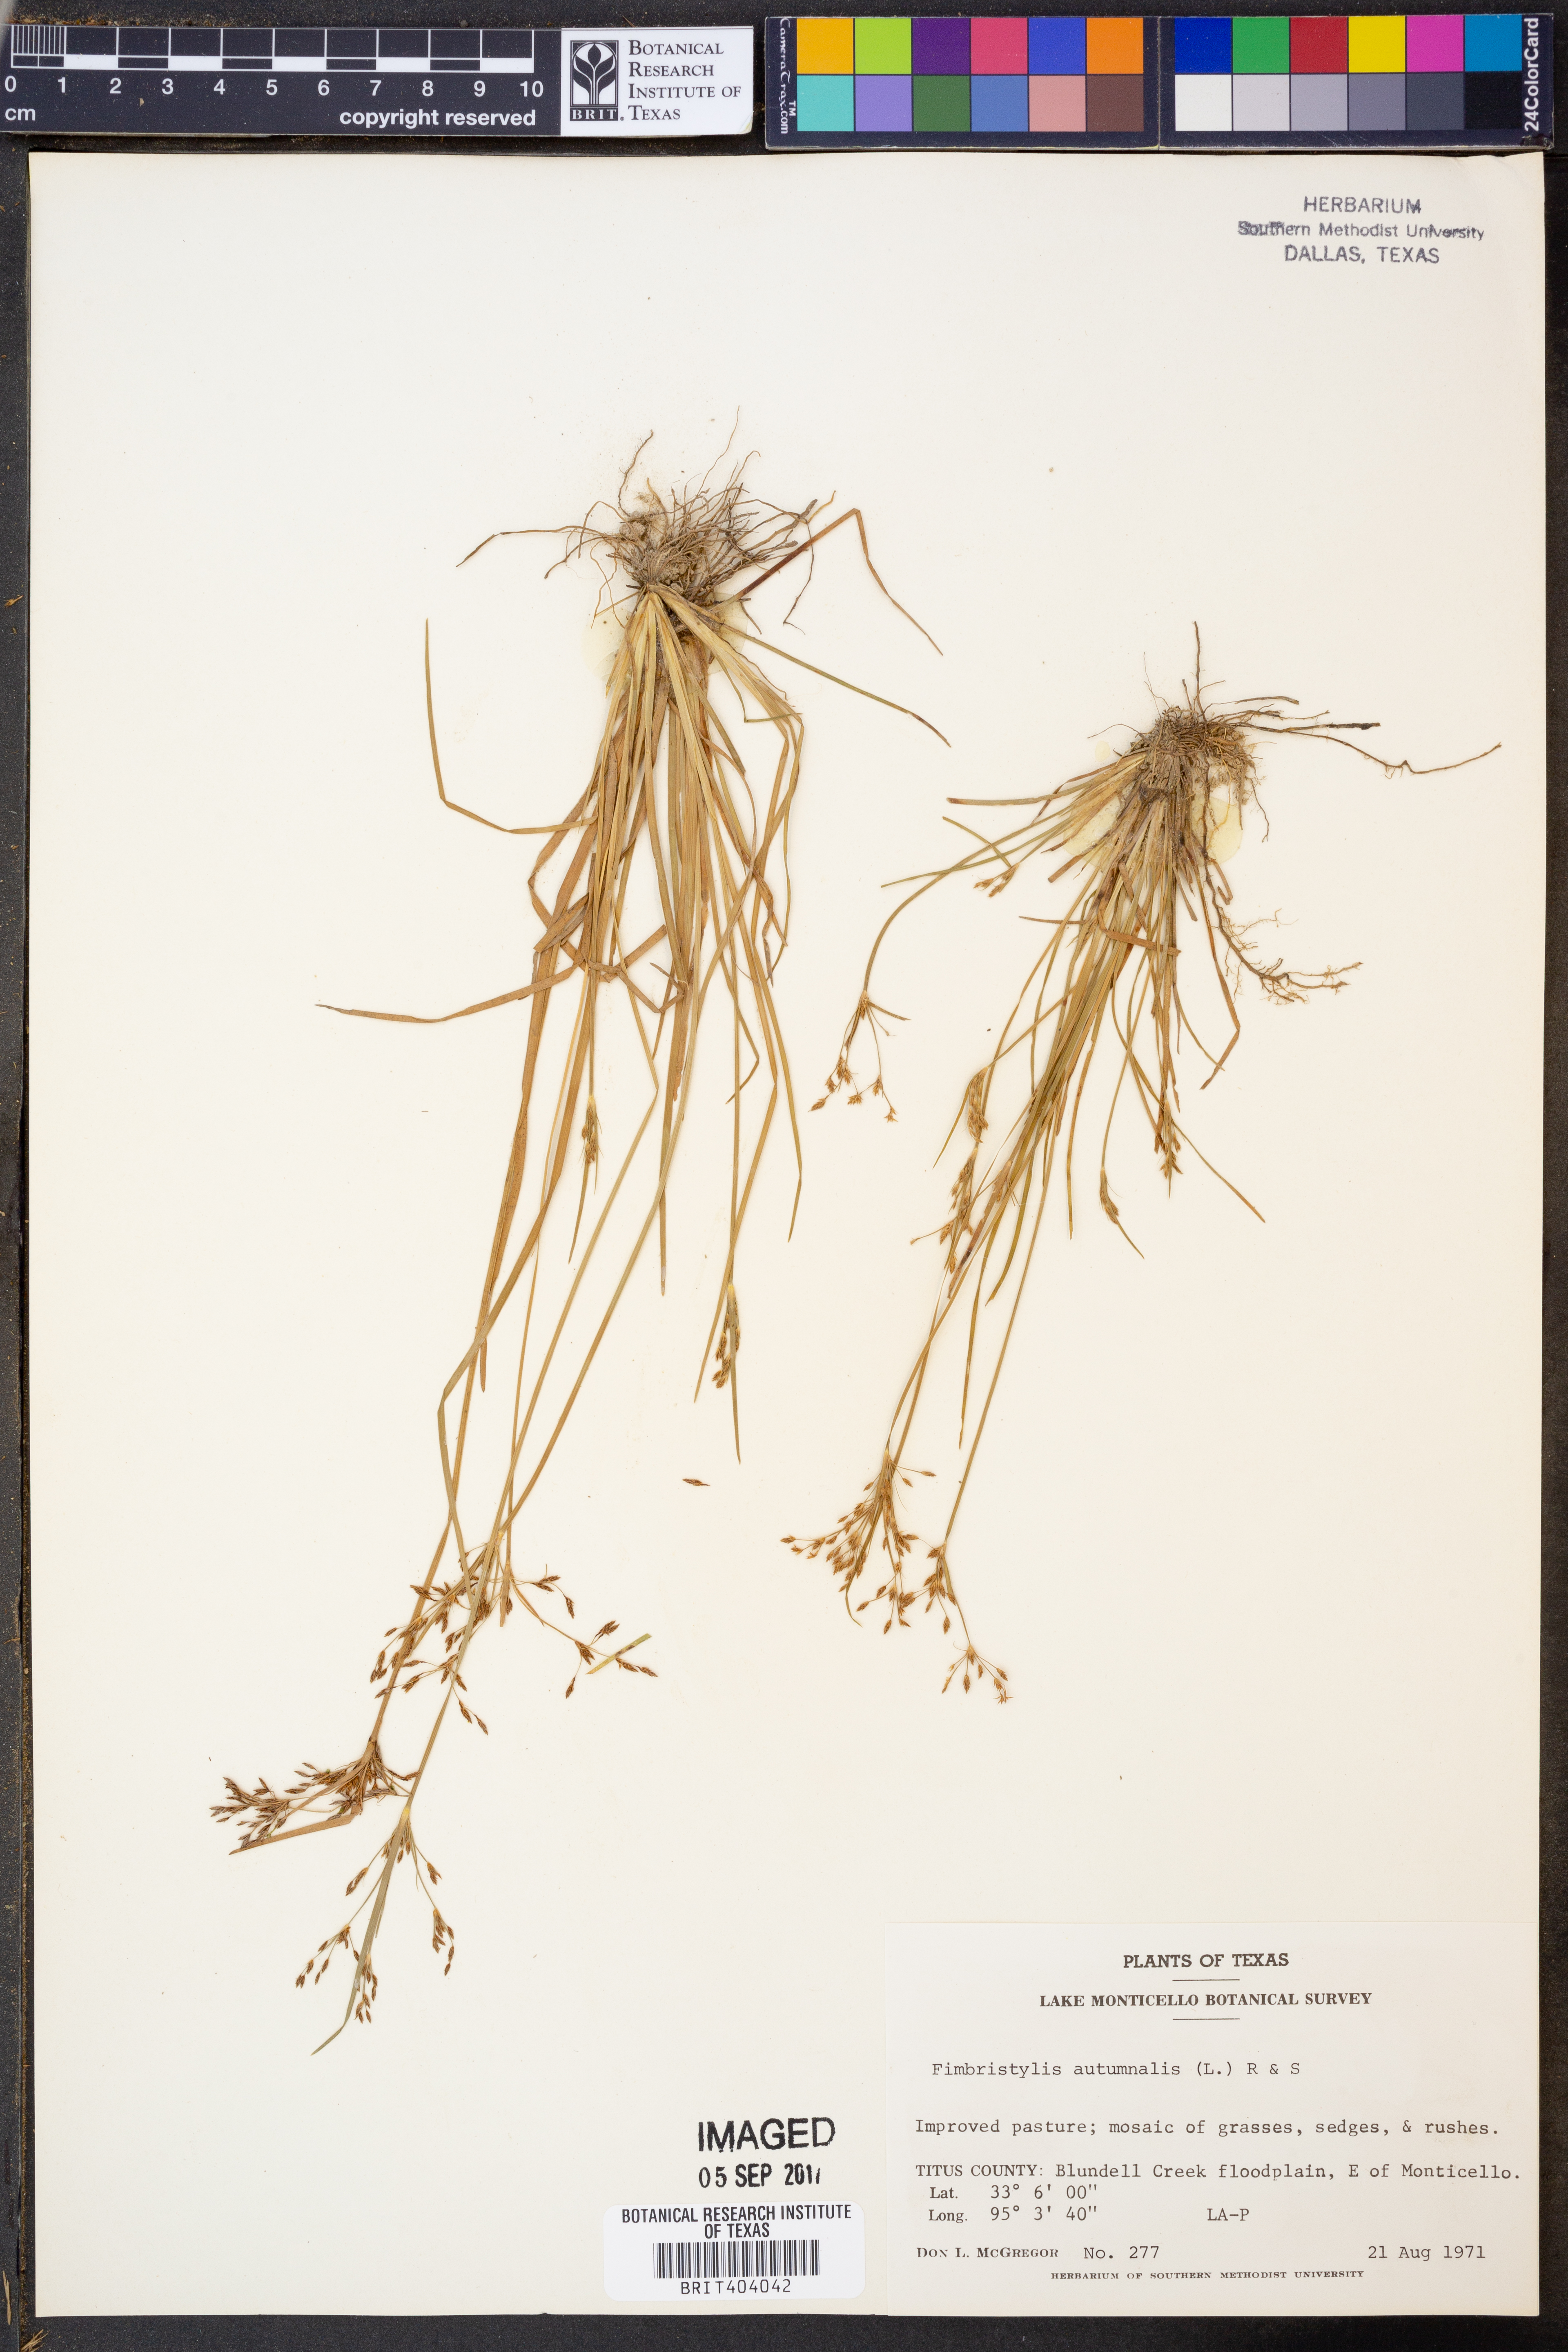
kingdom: Plantae
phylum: Tracheophyta
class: Liliopsida
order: Poales
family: Cyperaceae
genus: Fimbristylis
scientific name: Fimbristylis autumnalis
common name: Slender fimbristylis
